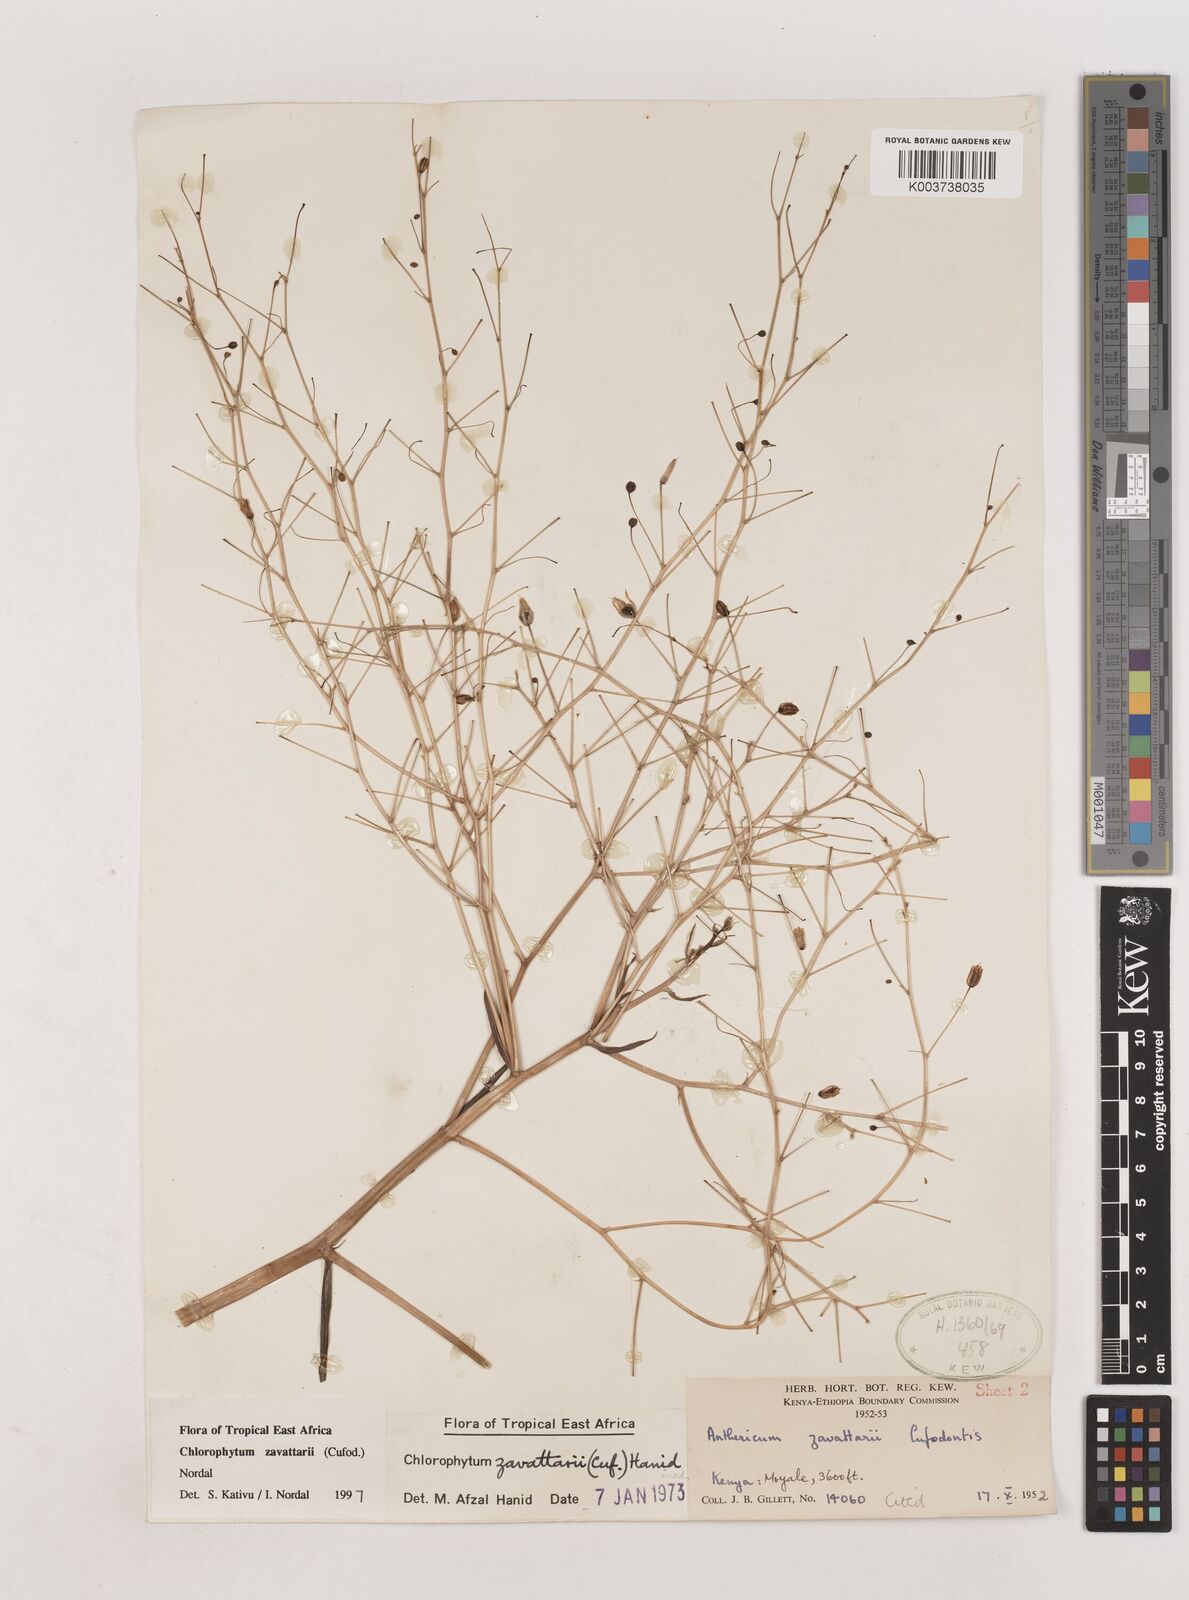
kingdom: Plantae
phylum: Tracheophyta
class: Liliopsida
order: Asparagales
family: Asparagaceae
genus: Chlorophytum
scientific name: Chlorophytum zavattarii
